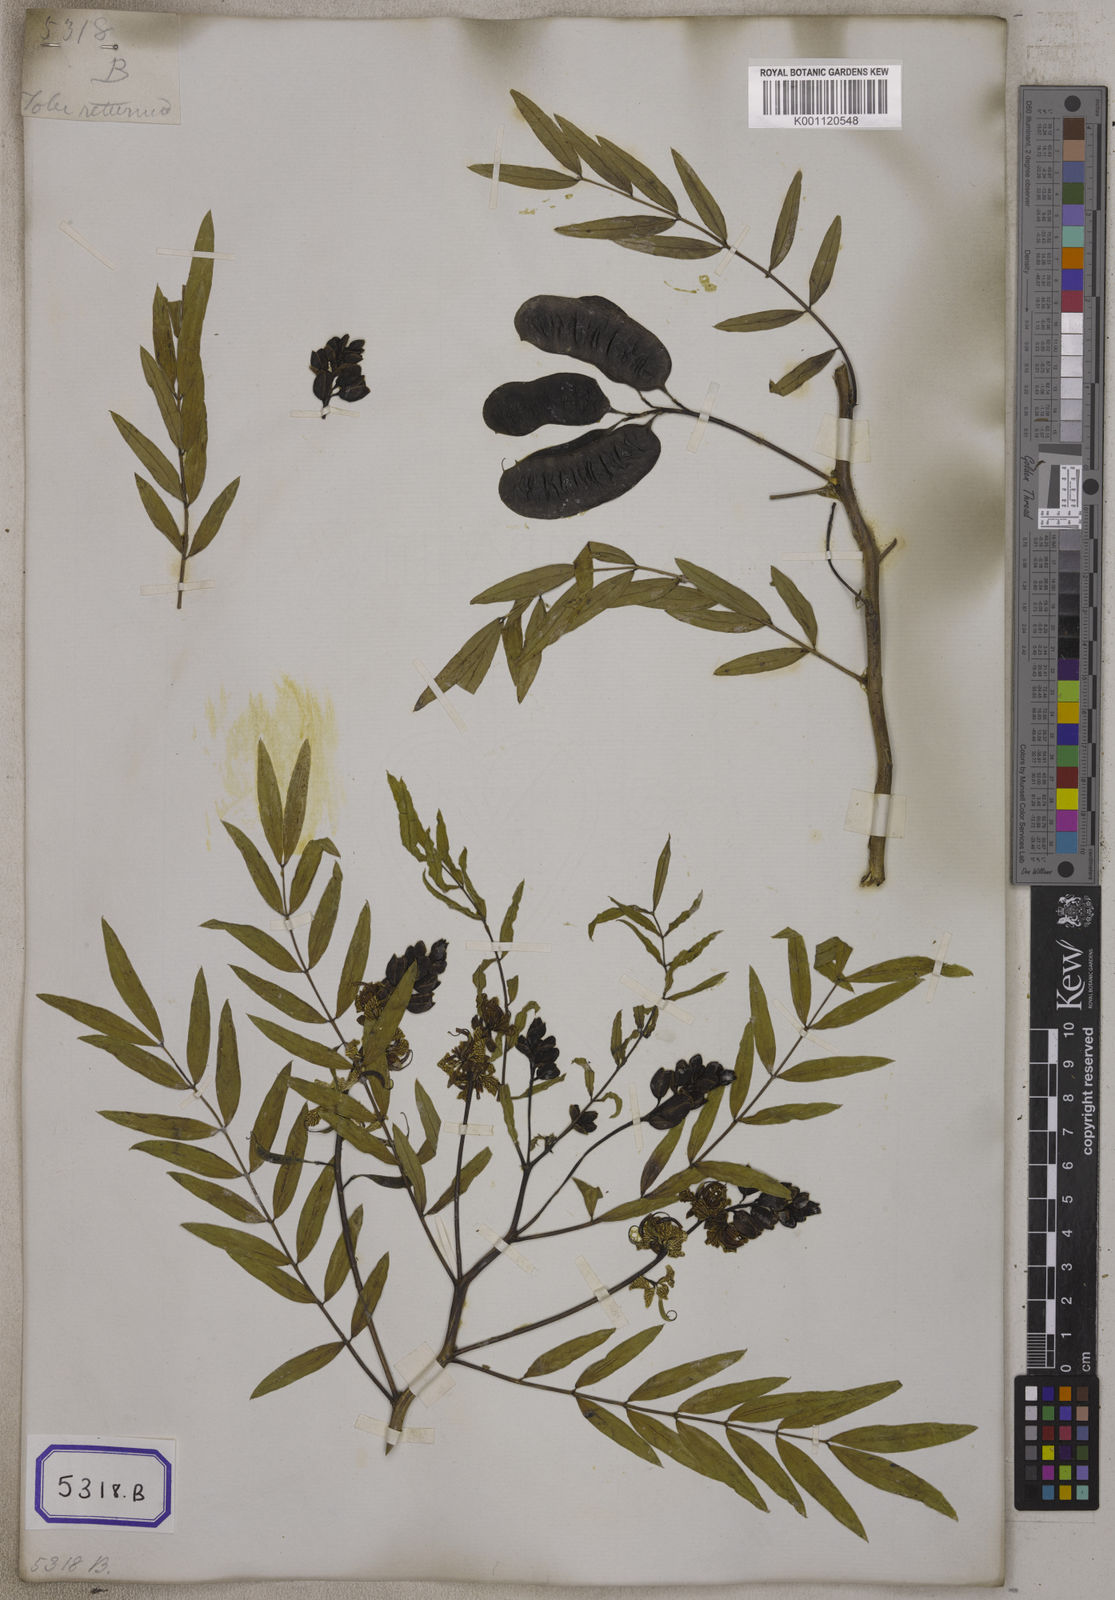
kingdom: Plantae
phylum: Tracheophyta
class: Magnoliopsida
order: Fabales
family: Fabaceae
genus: Senna
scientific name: Senna alexandrina
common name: True senna
